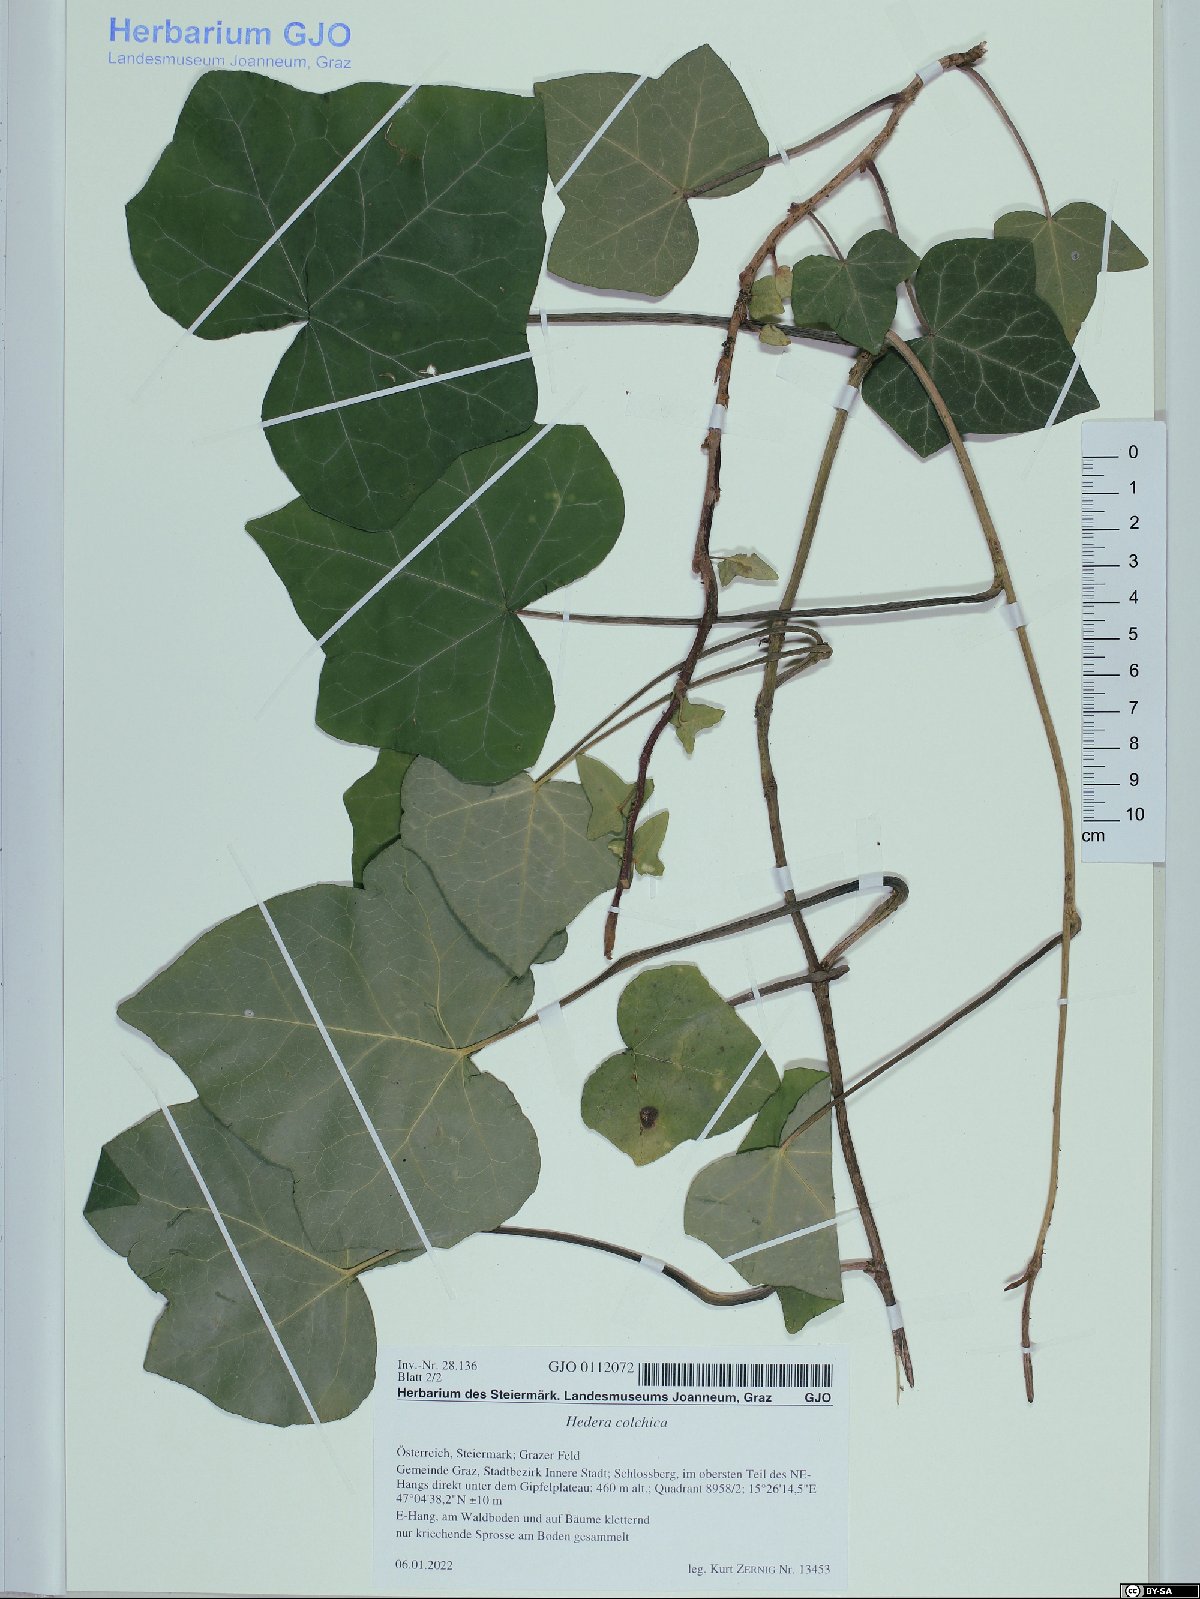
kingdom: Plantae
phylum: Tracheophyta
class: Magnoliopsida
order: Apiales
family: Araliaceae
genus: Hedera
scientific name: Hedera colchica
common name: Persian ivy
